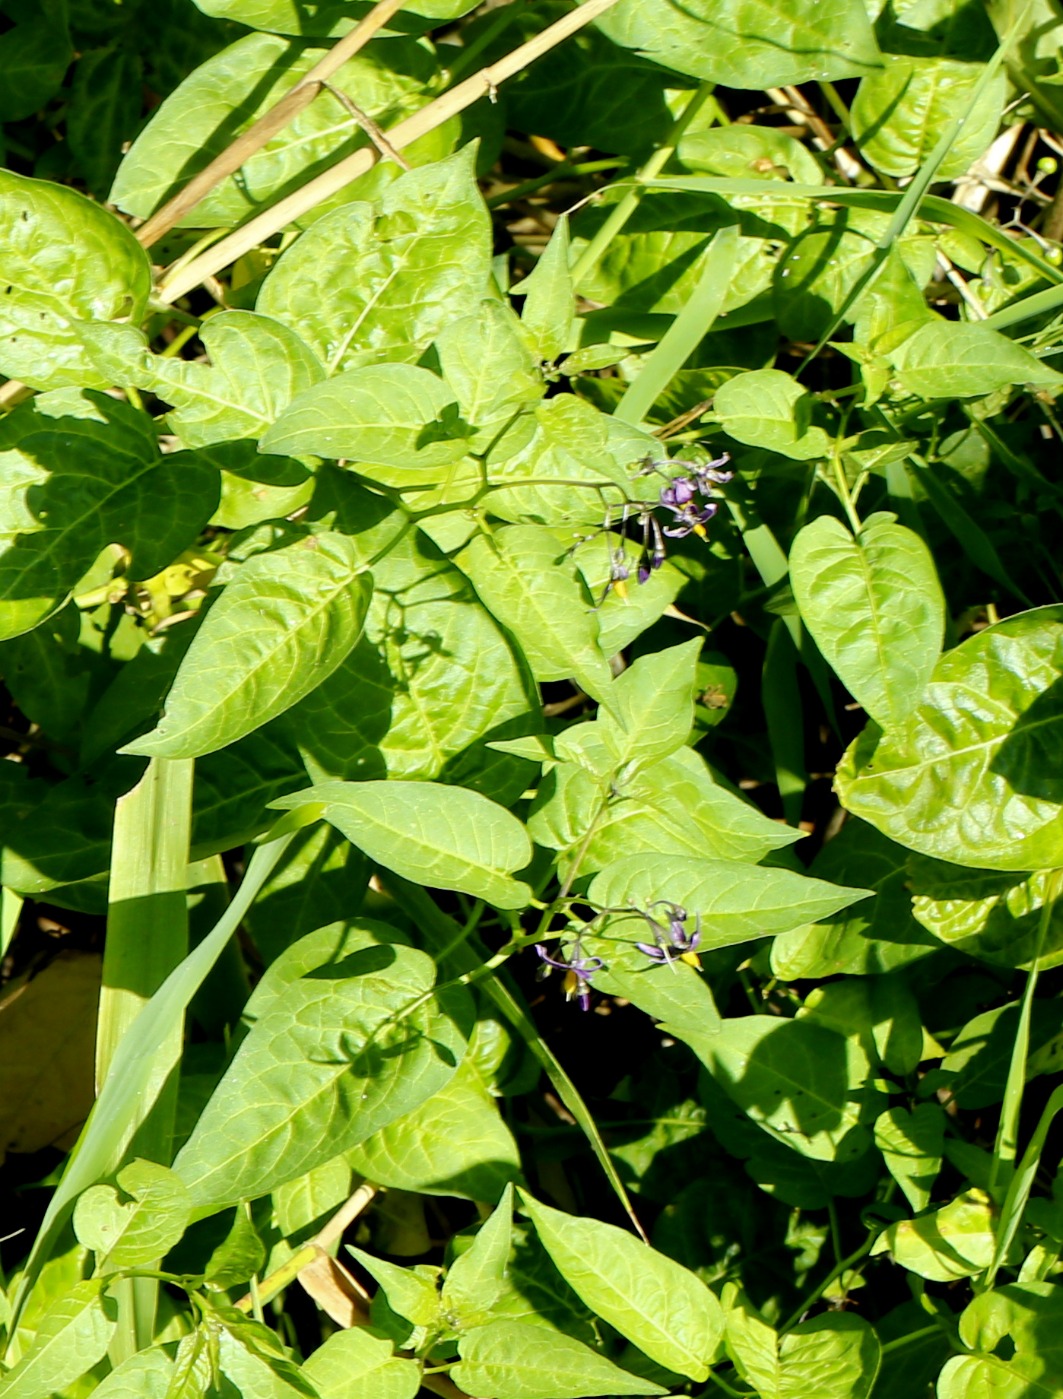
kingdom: Plantae
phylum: Tracheophyta
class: Magnoliopsida
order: Solanales
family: Solanaceae
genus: Solanum
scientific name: Solanum dulcamara
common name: Bittersød natskygge
